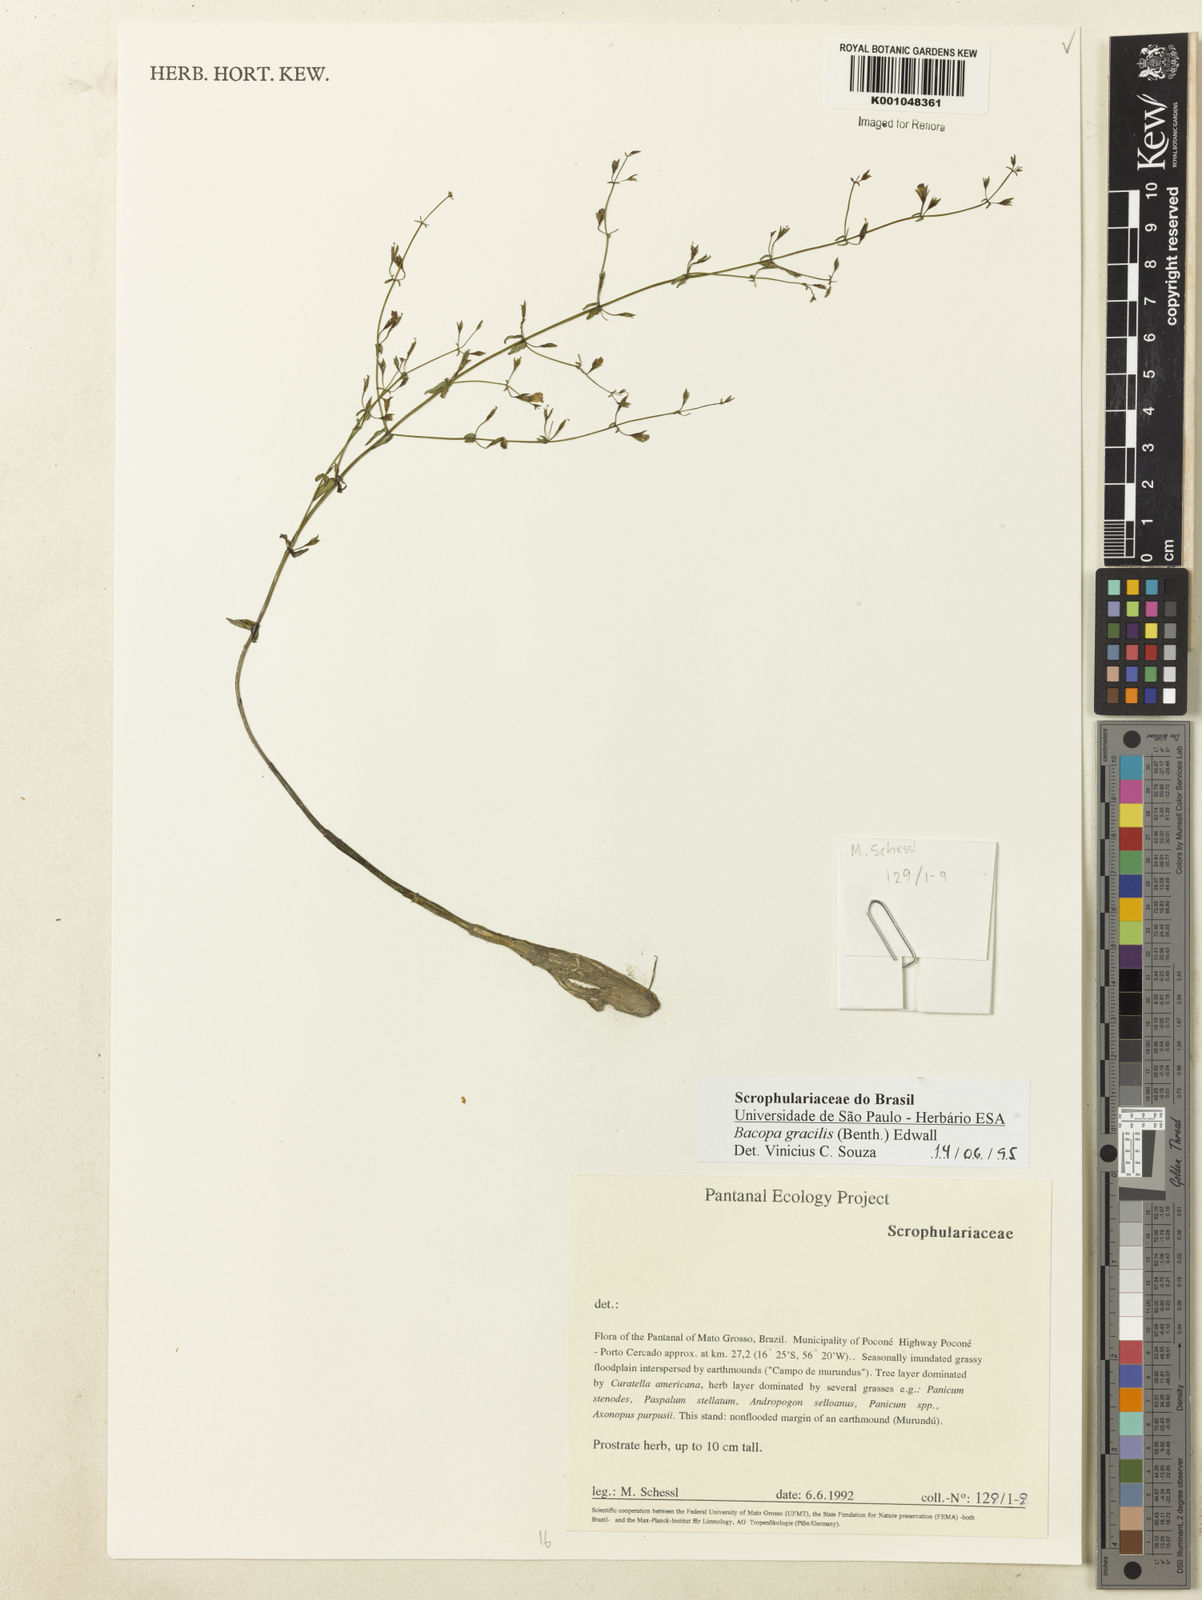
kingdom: Plantae
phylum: Tracheophyta
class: Magnoliopsida
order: Lamiales
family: Plantaginaceae
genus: Bacopa
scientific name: Bacopa gracilis
